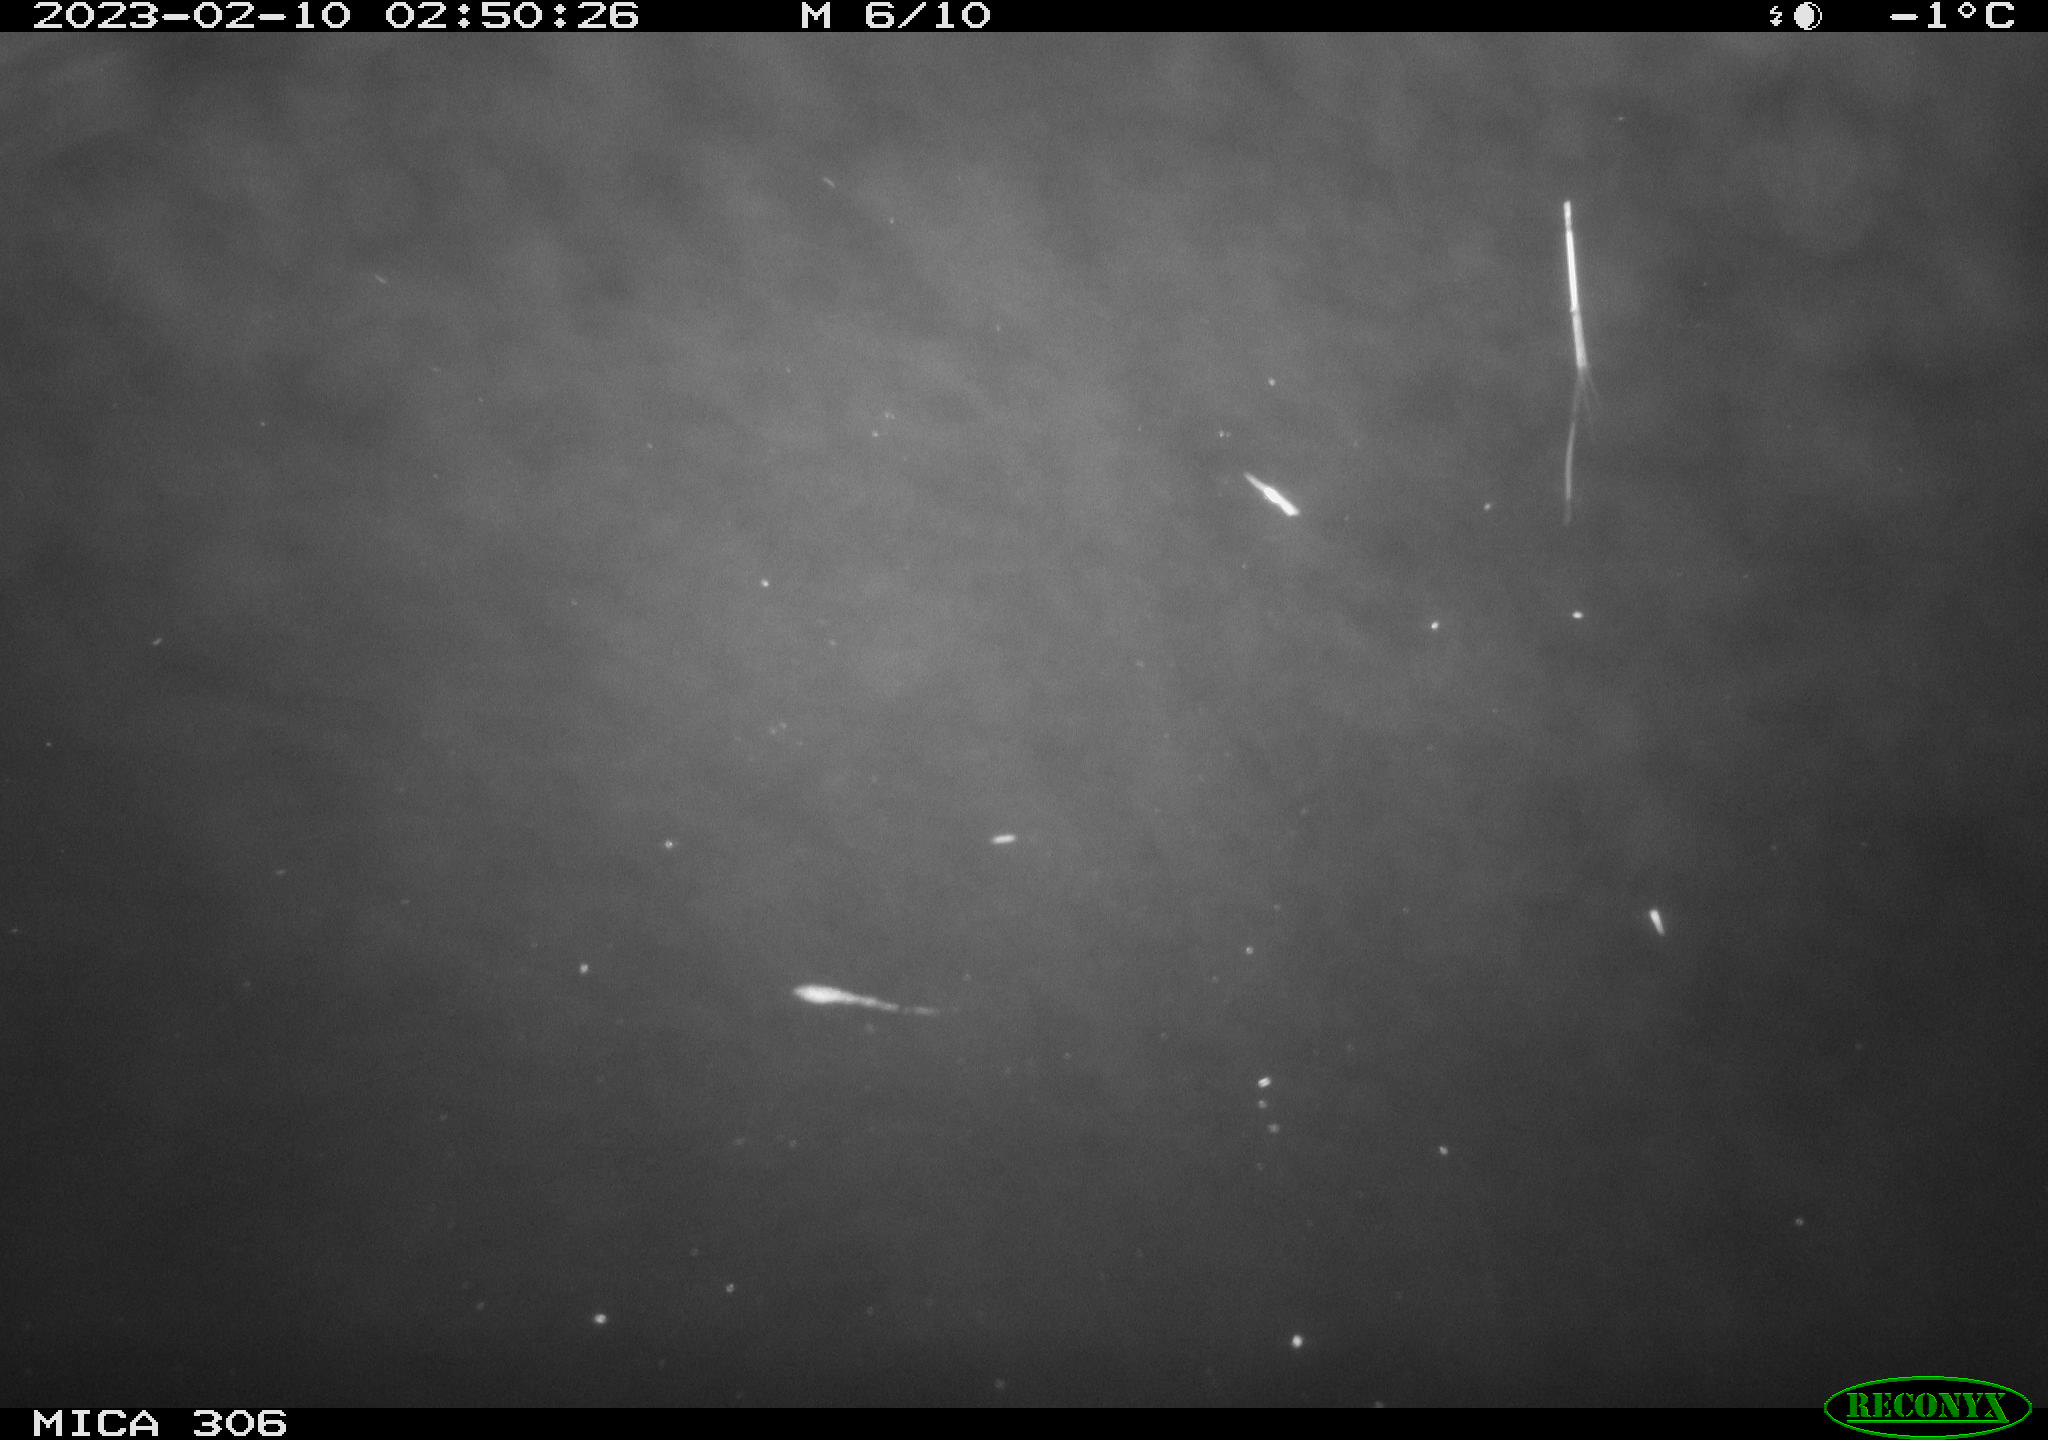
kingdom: Animalia
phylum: Chordata
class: Mammalia
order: Rodentia
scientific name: Rodentia
